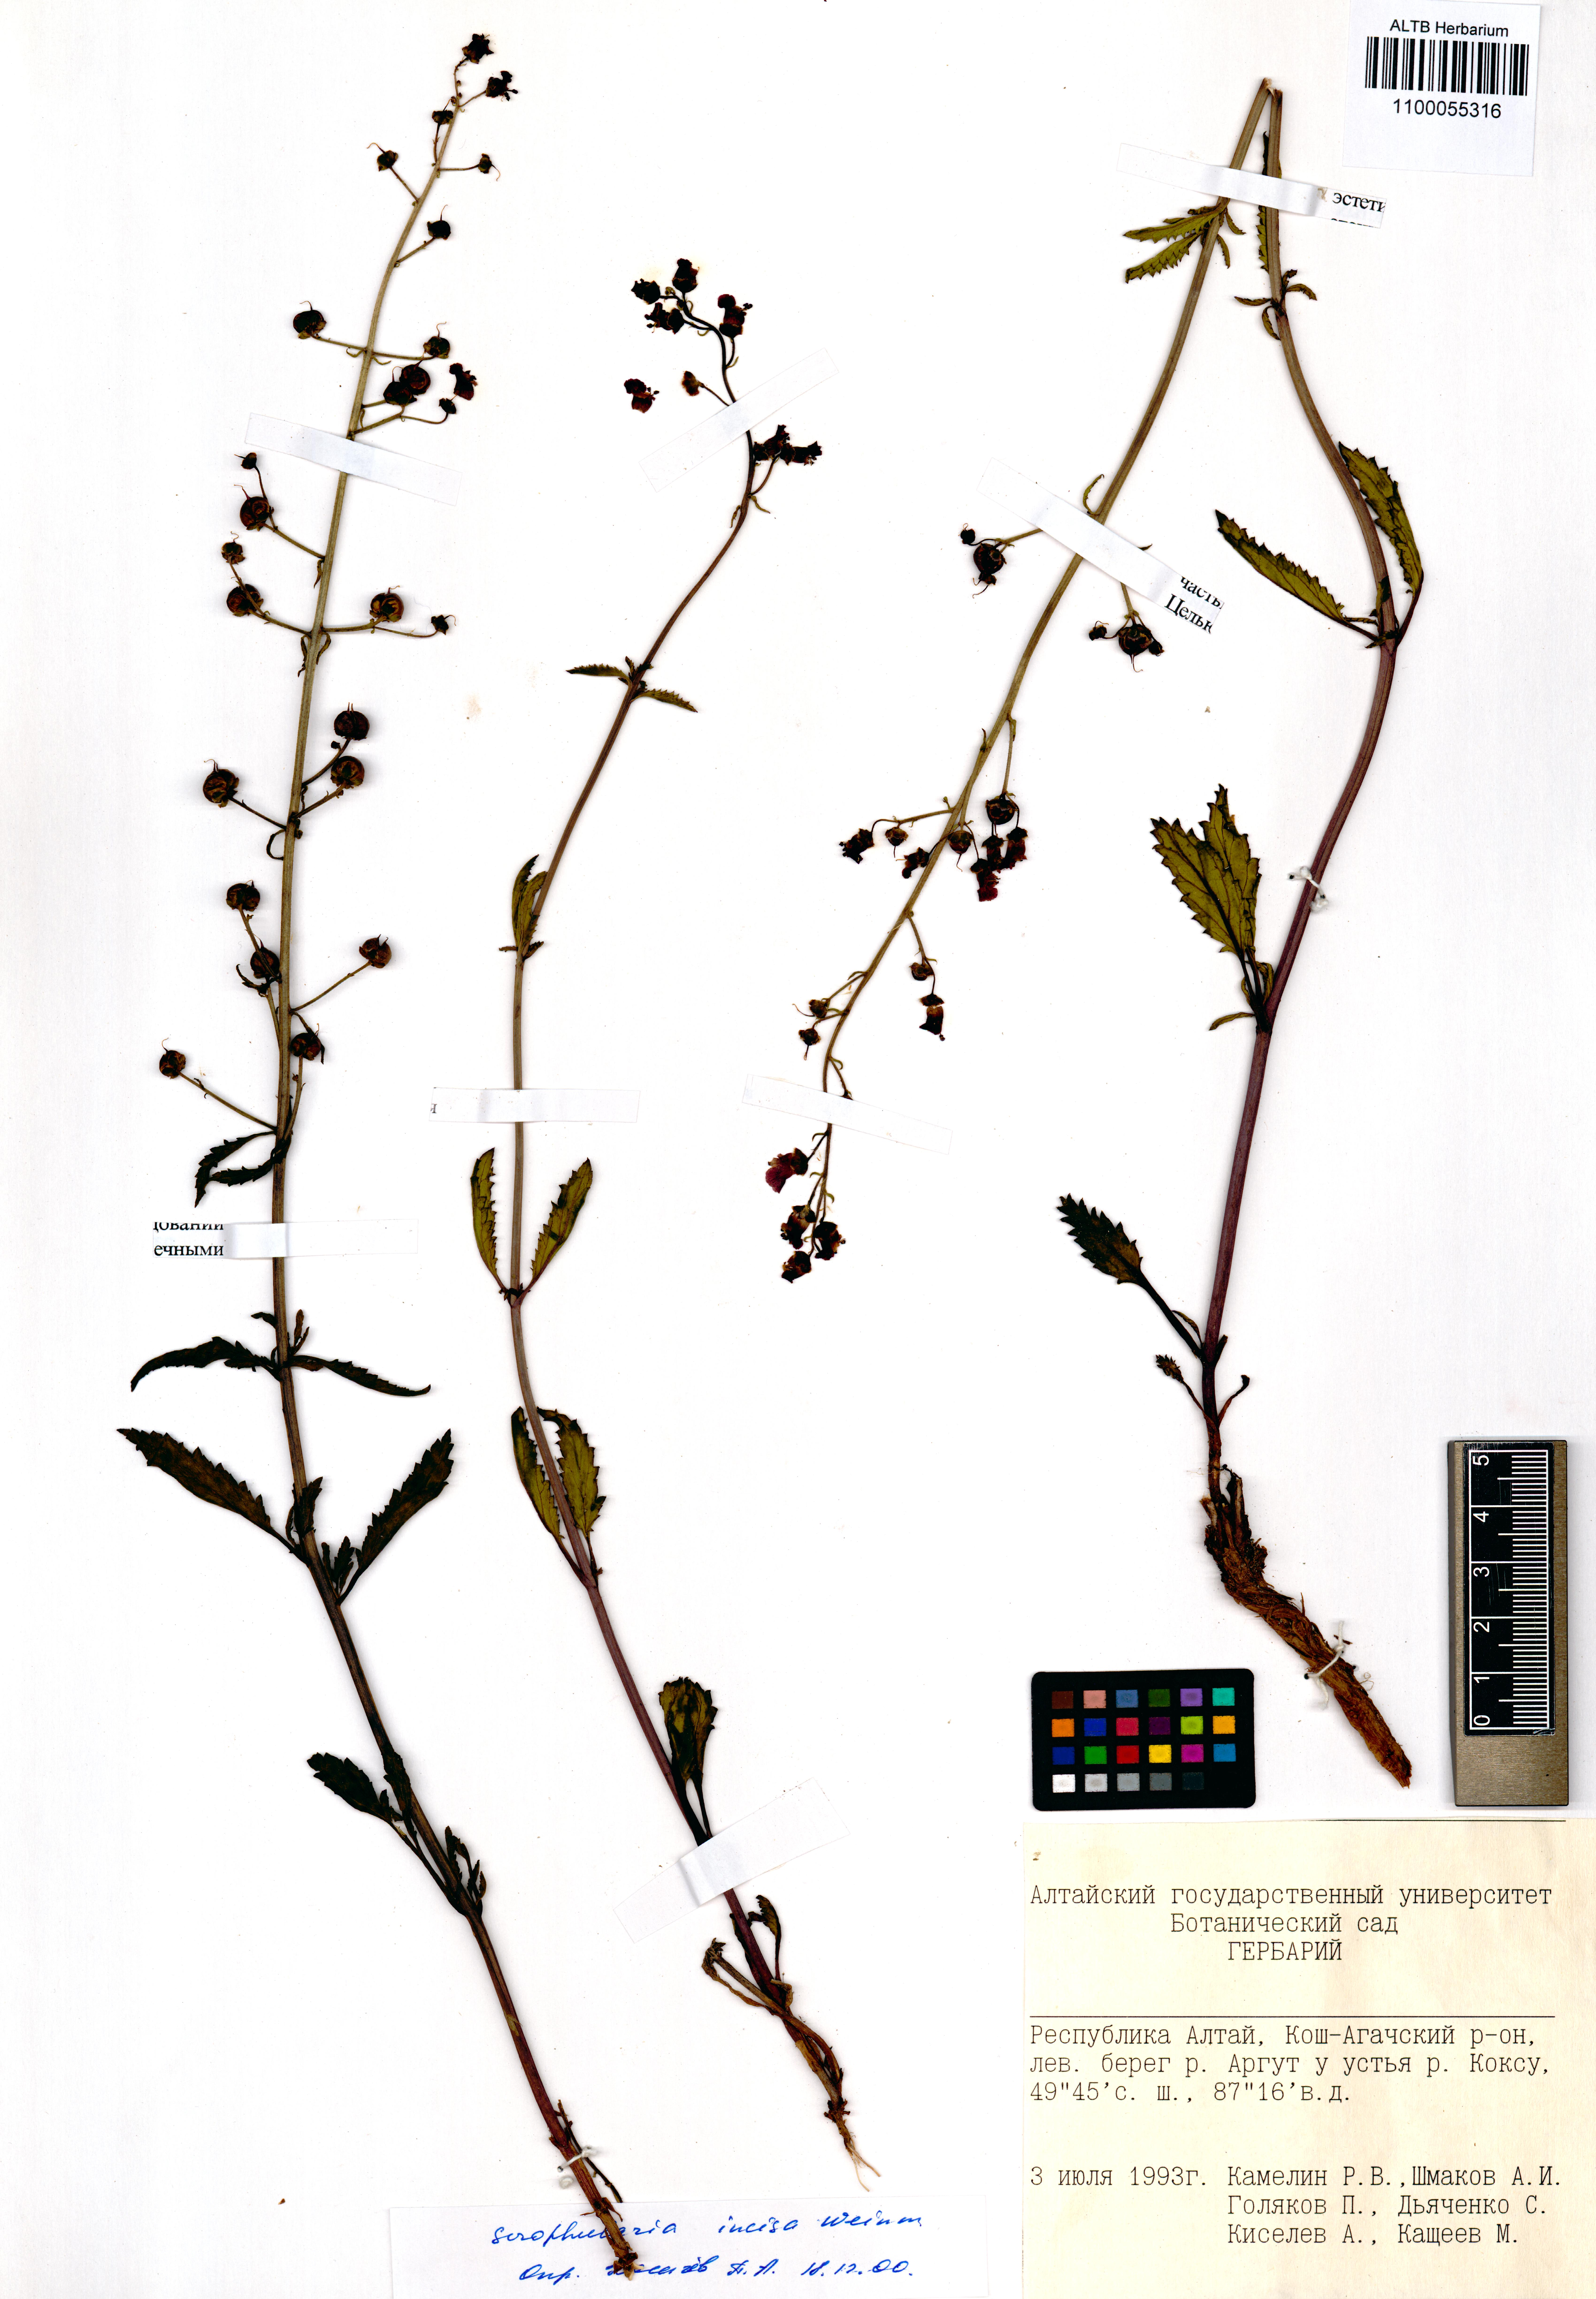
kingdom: Plantae
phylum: Tracheophyta
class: Magnoliopsida
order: Lamiales
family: Scrophulariaceae
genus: Scrophularia
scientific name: Scrophularia incisa
